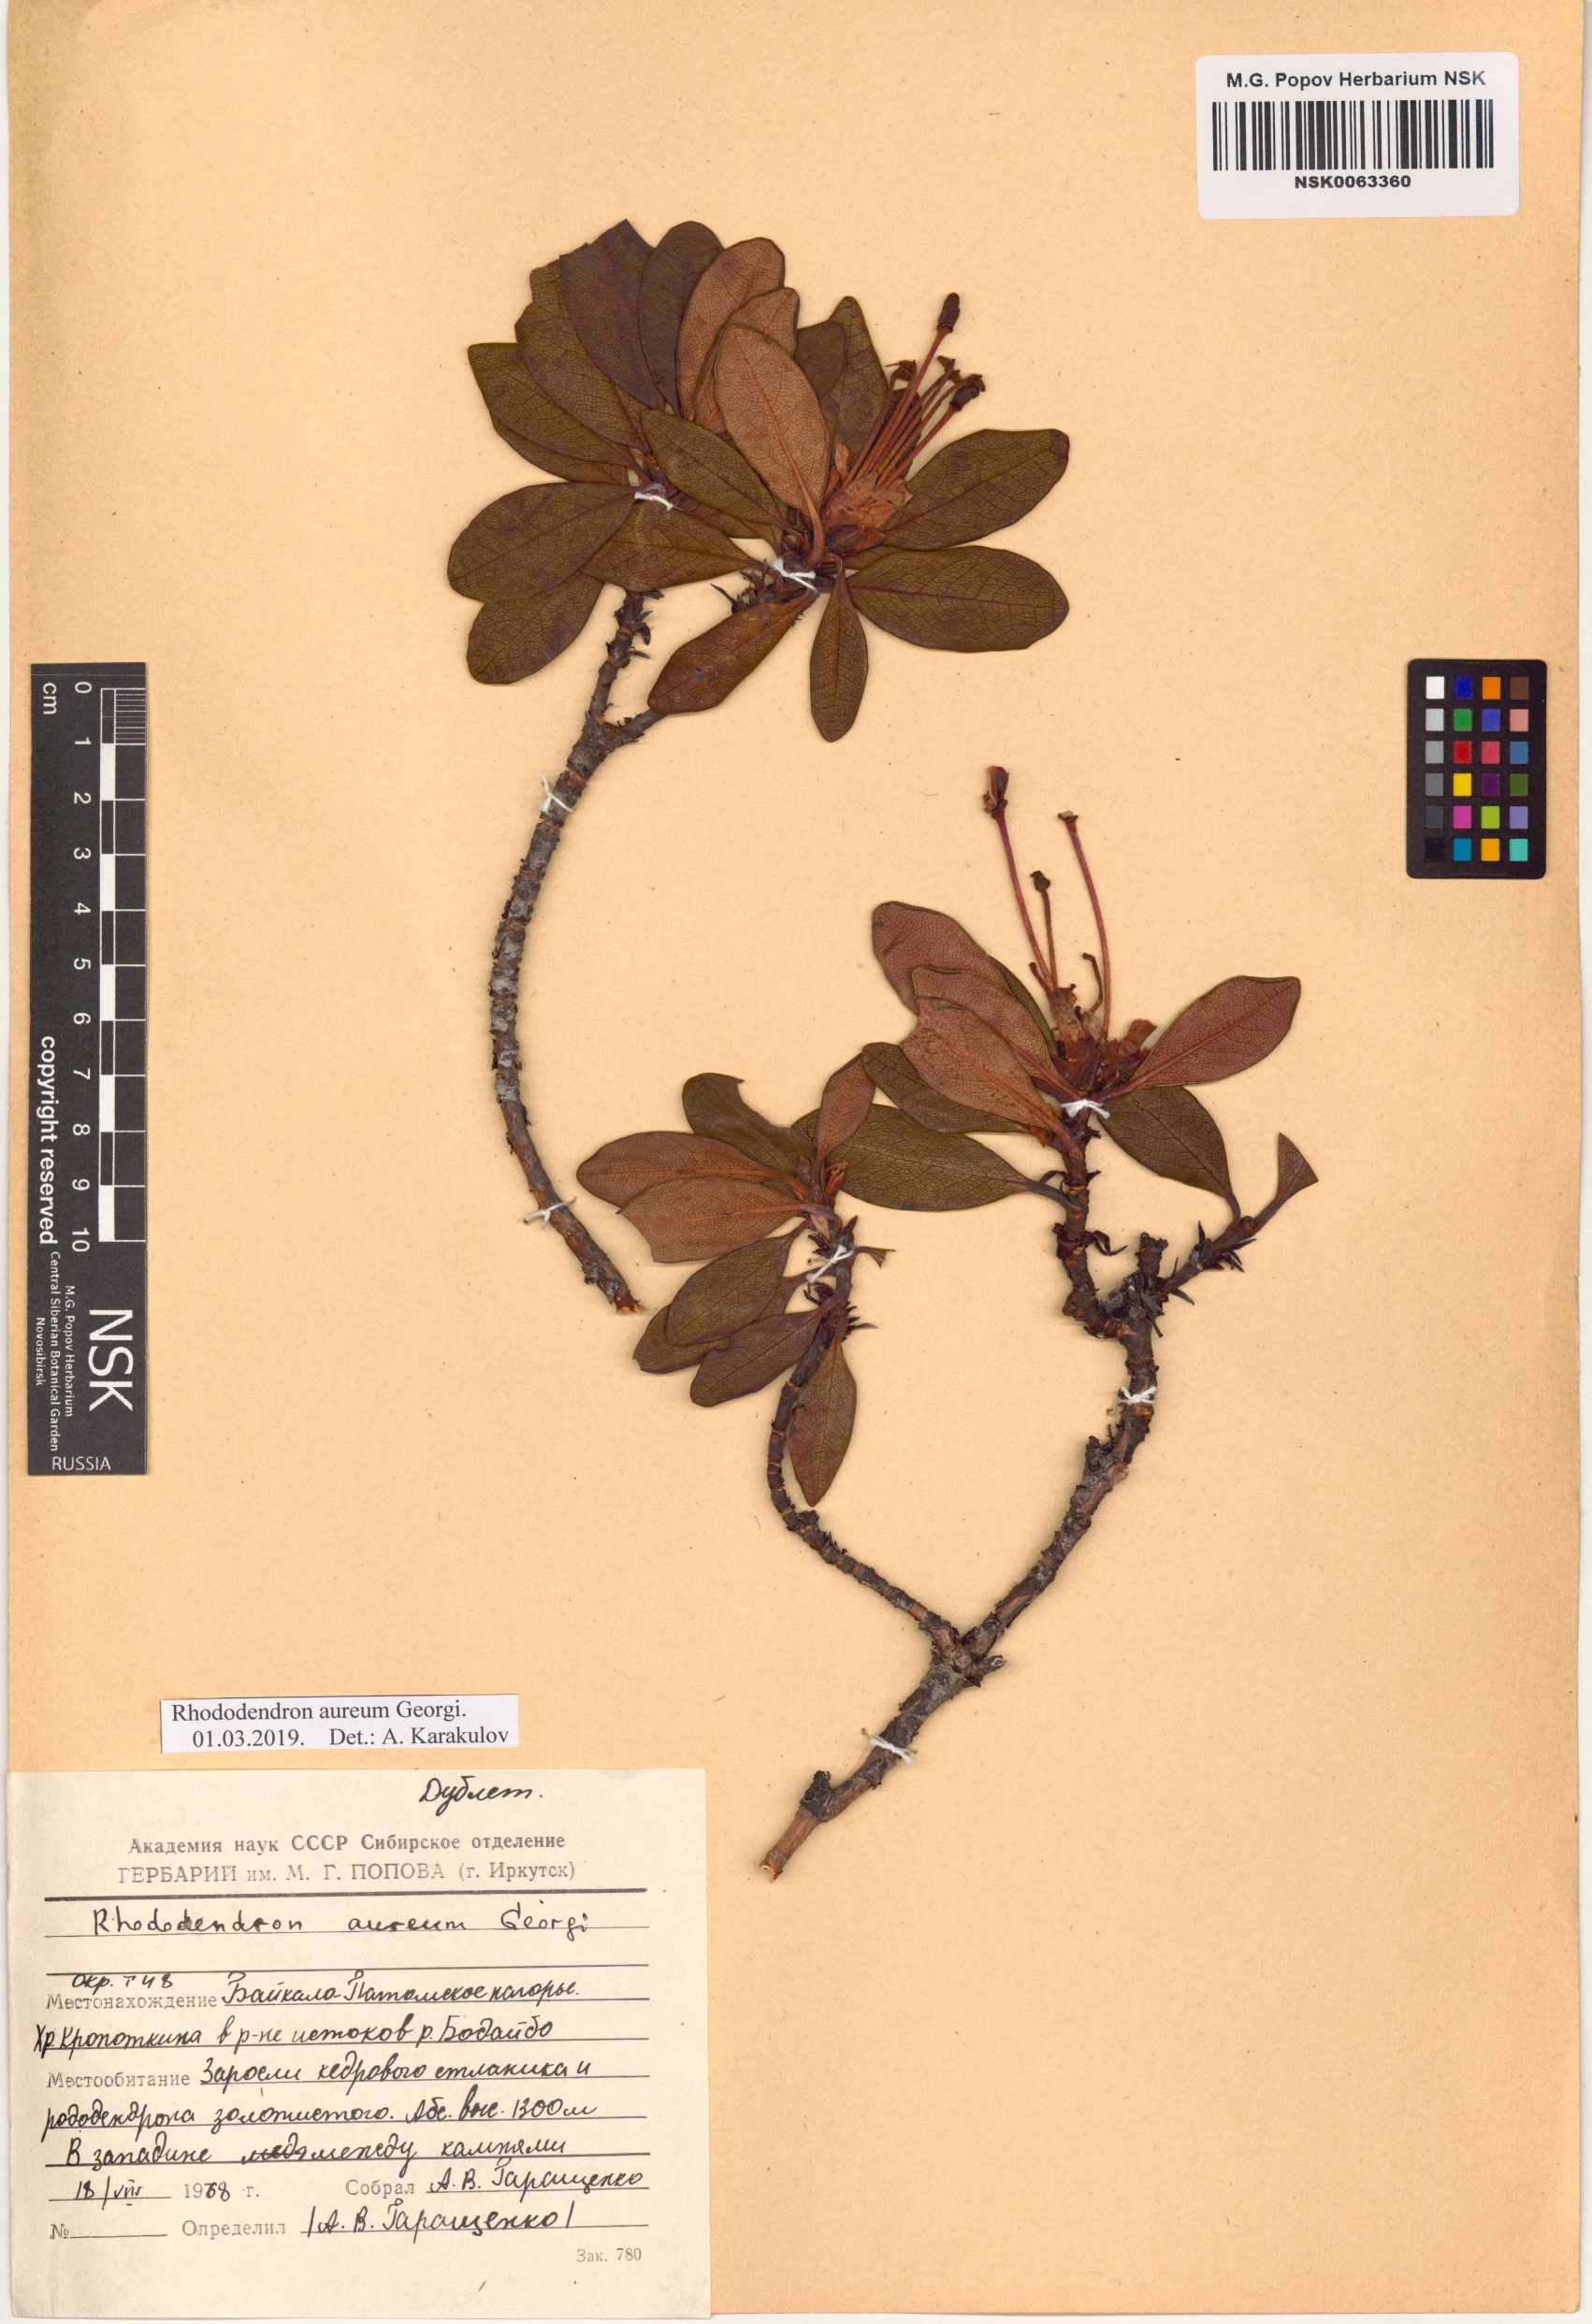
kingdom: Plantae
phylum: Tracheophyta
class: Magnoliopsida
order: Ericales
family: Ericaceae
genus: Rhododendron
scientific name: Rhododendron aureum
